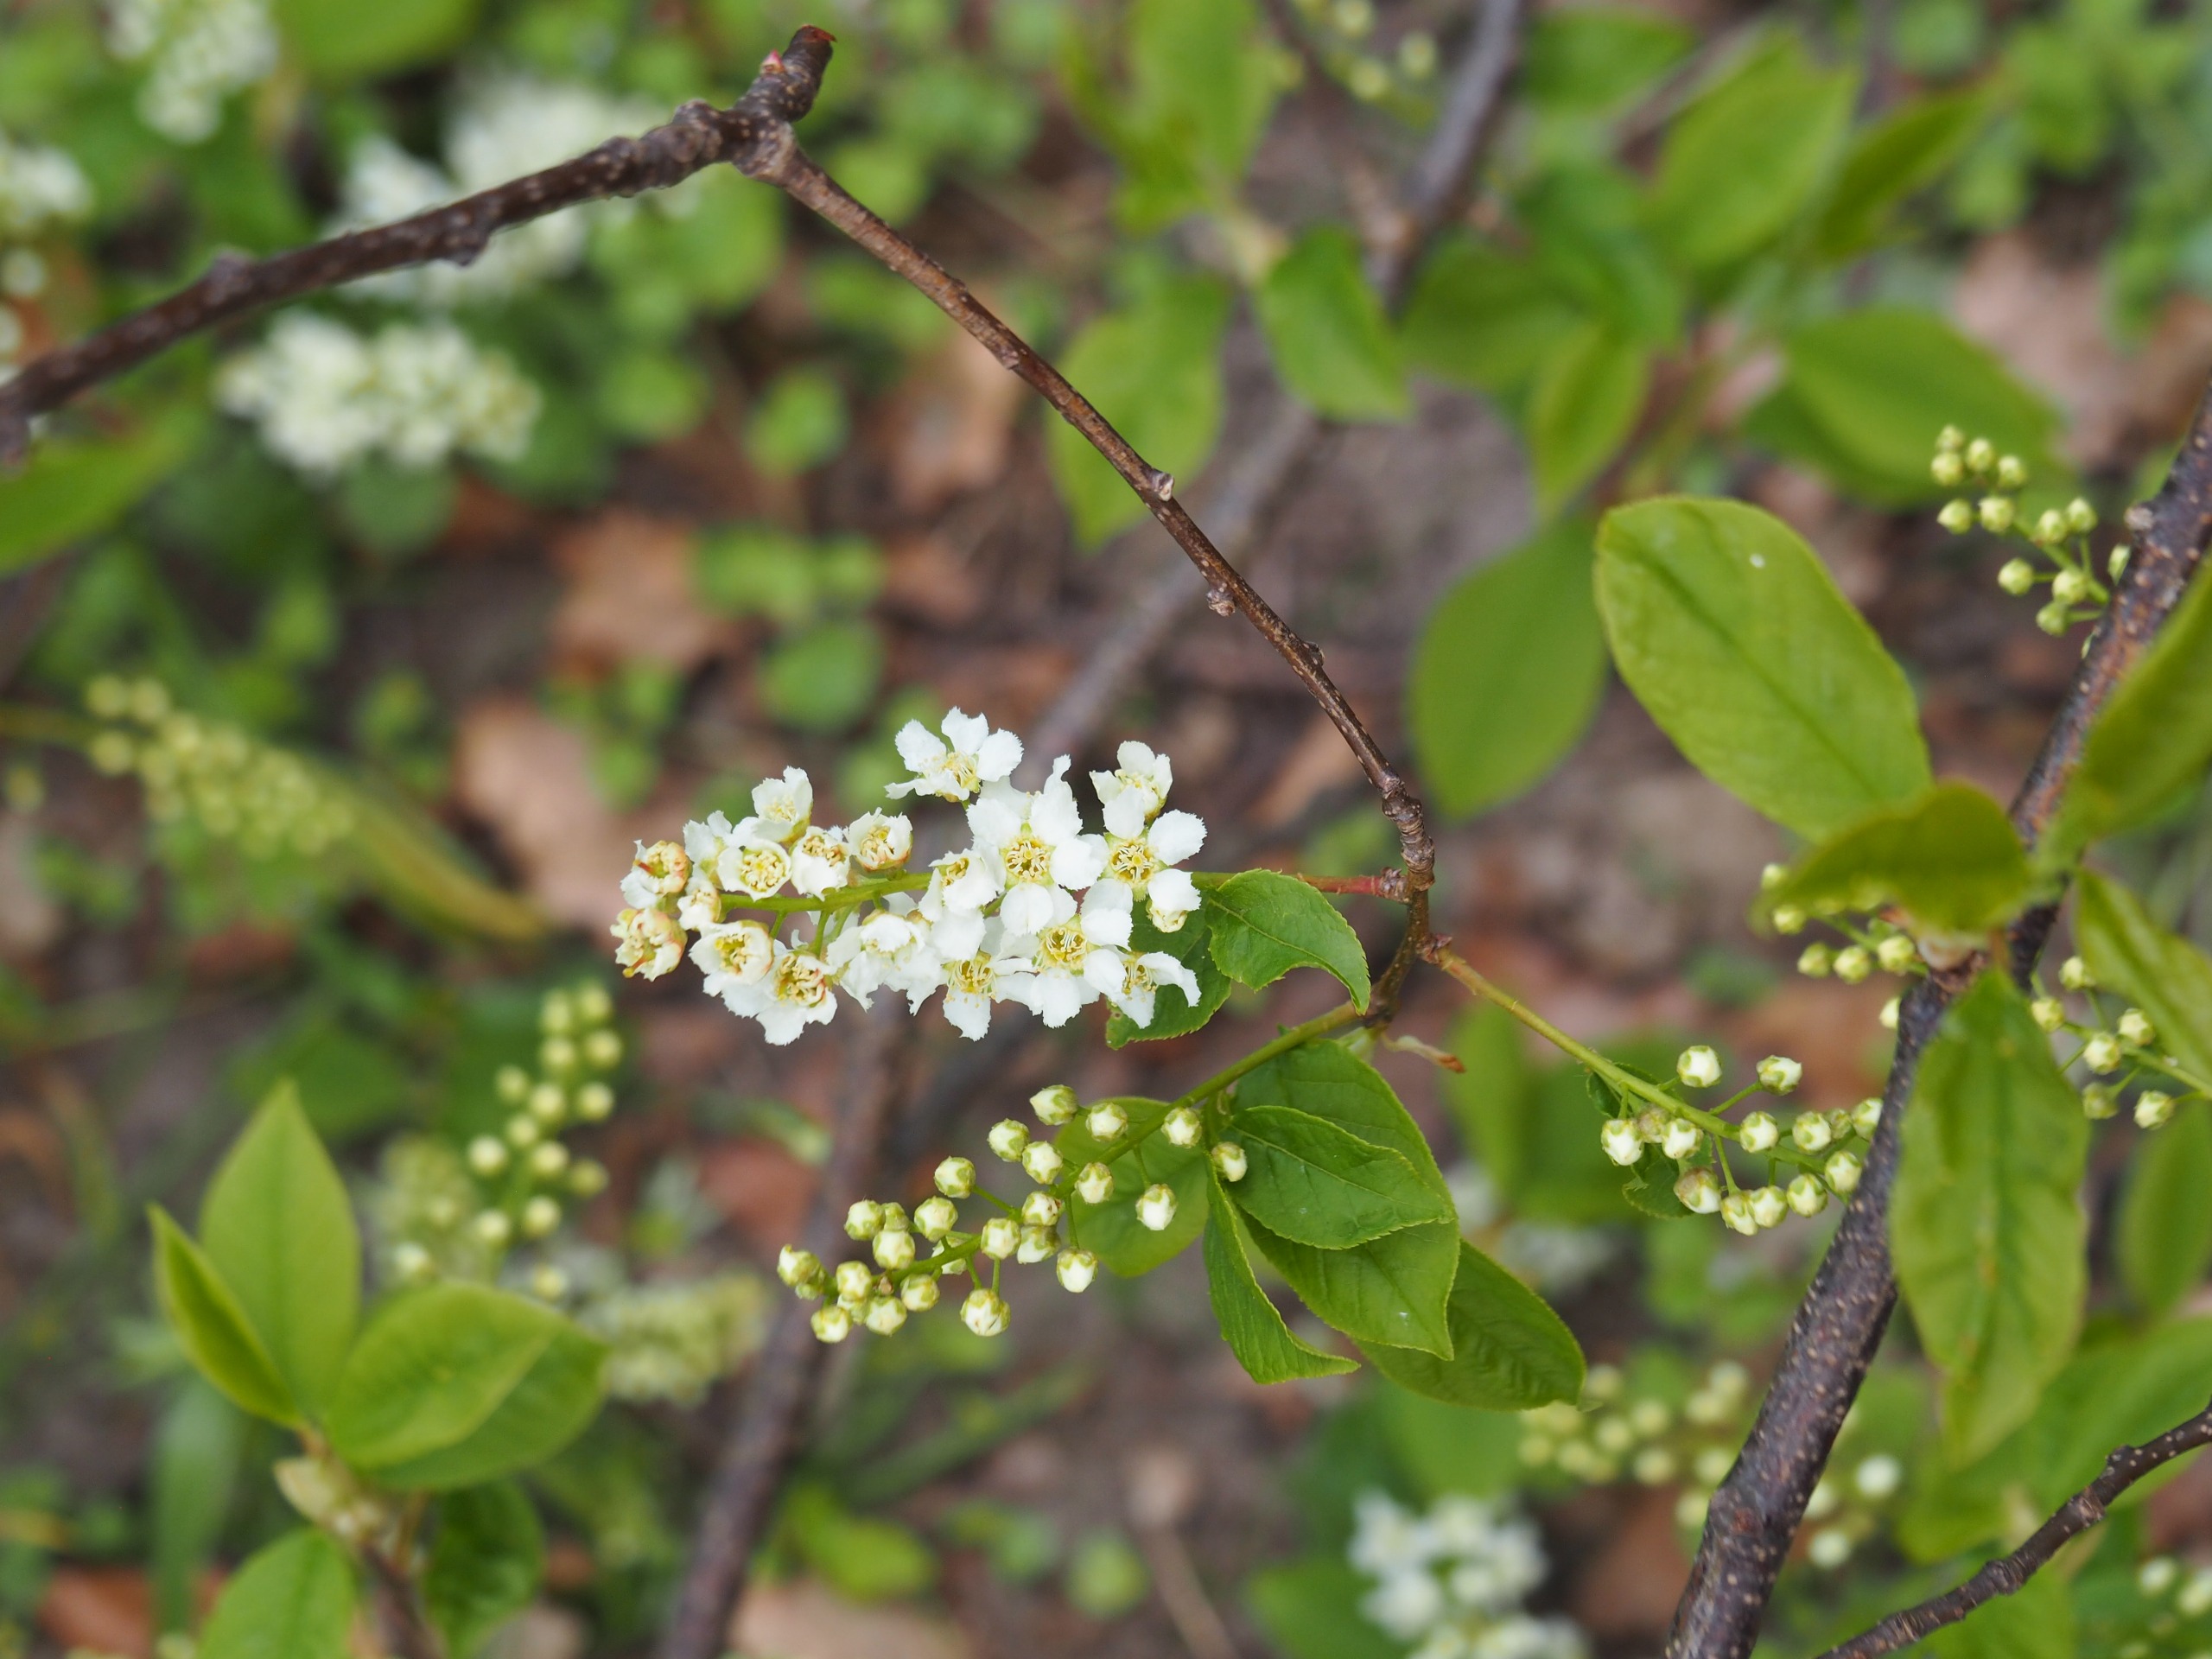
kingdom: Plantae
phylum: Tracheophyta
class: Magnoliopsida
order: Rosales
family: Rosaceae
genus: Prunus
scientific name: Prunus padus
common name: Almindelig hæg
